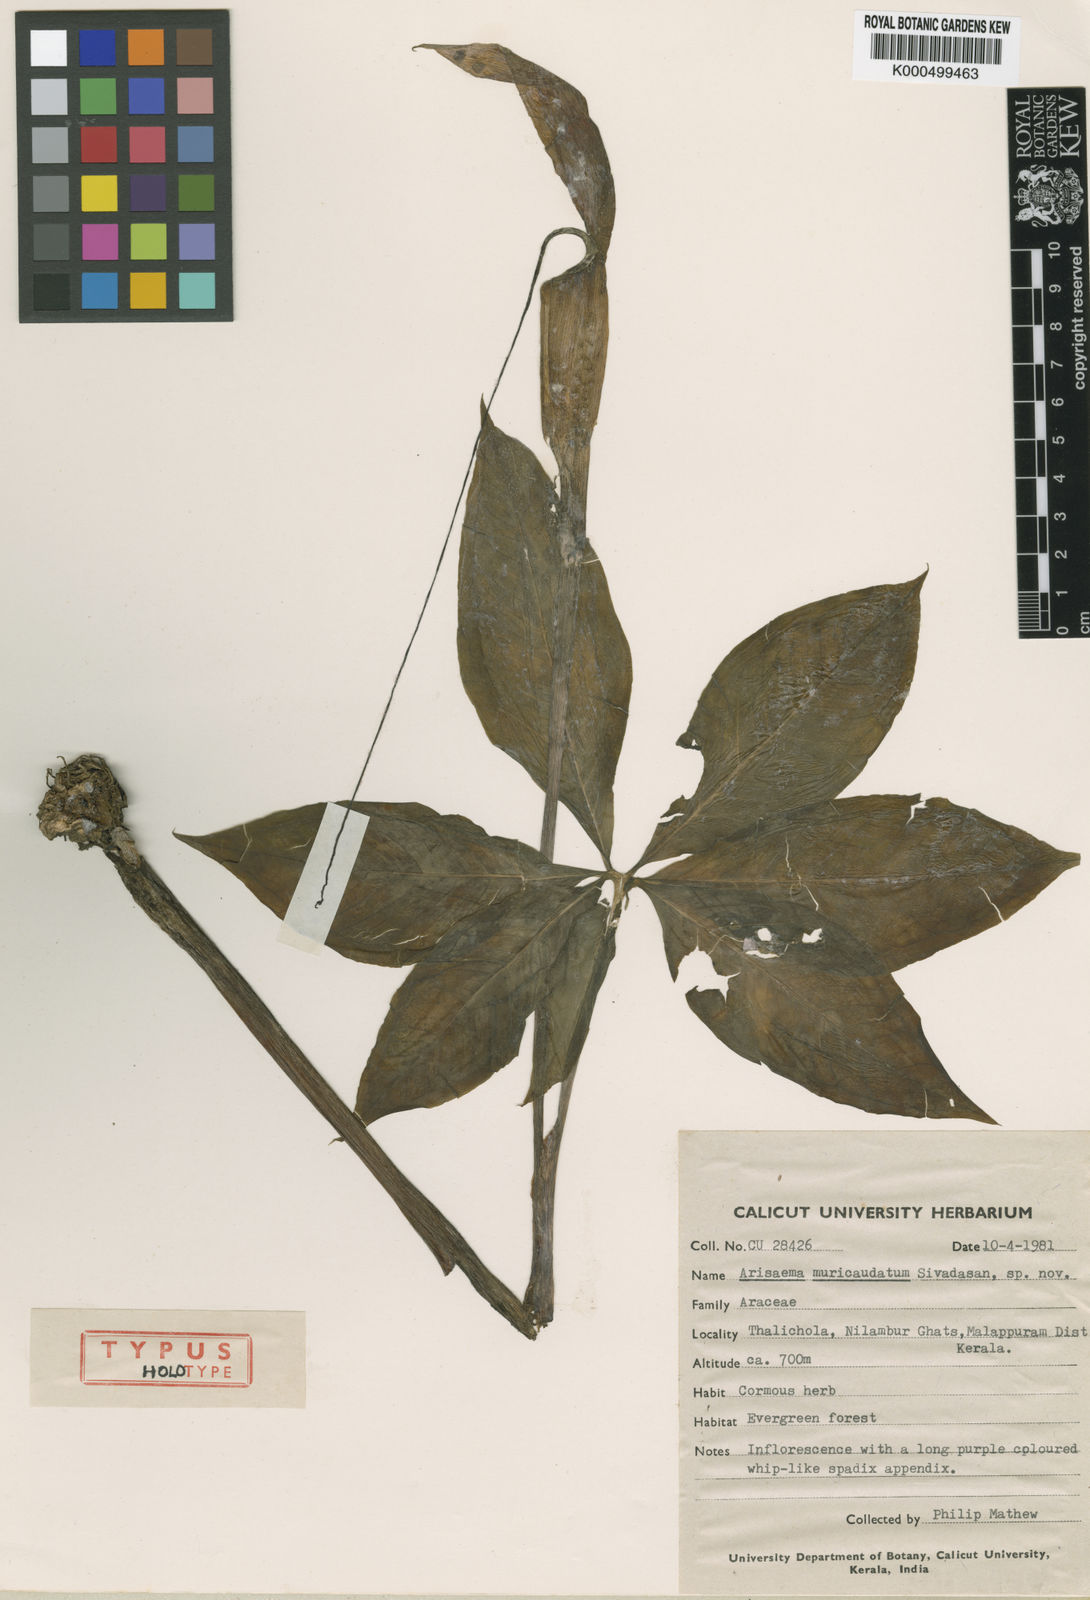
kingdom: Plantae
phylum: Tracheophyta
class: Liliopsida
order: Alismatales
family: Araceae
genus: Arisaema
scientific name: Arisaema muricaudatum
